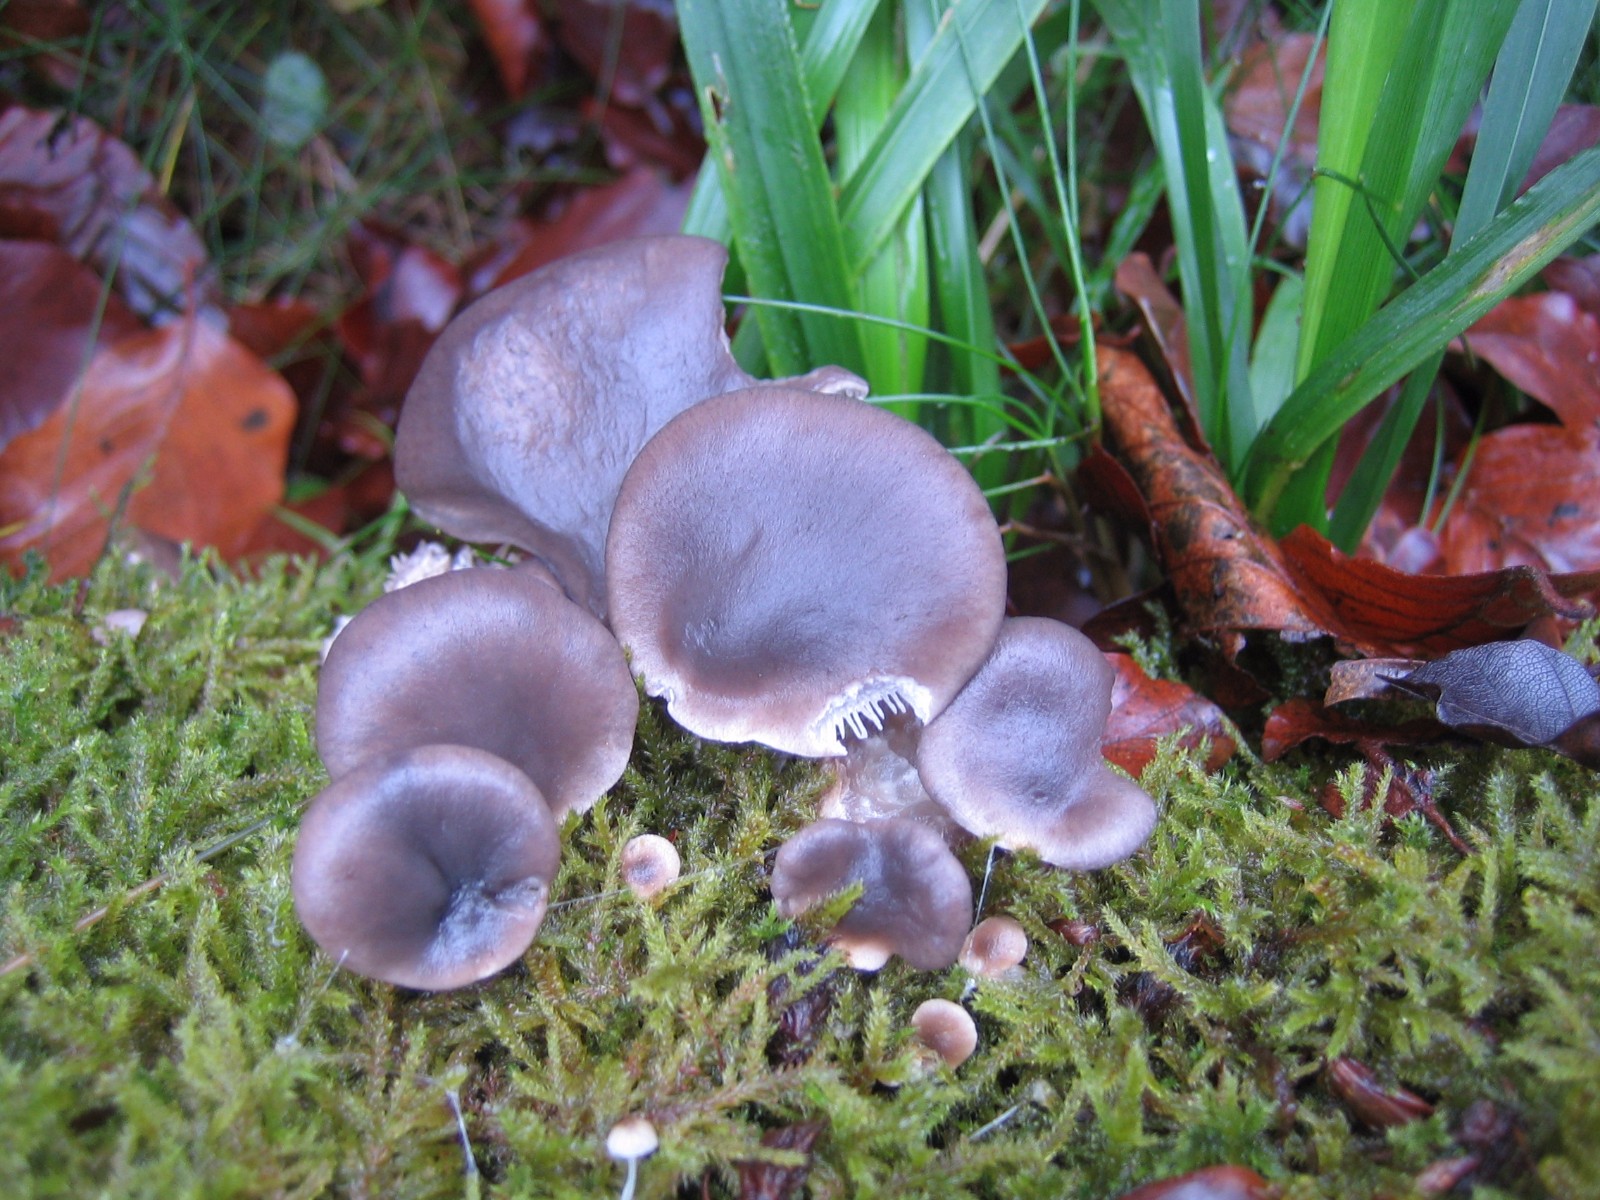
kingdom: Fungi
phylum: Basidiomycota
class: Agaricomycetes
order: Agaricales
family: Pleurotaceae
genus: Pleurotus
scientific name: Pleurotus ostreatus
